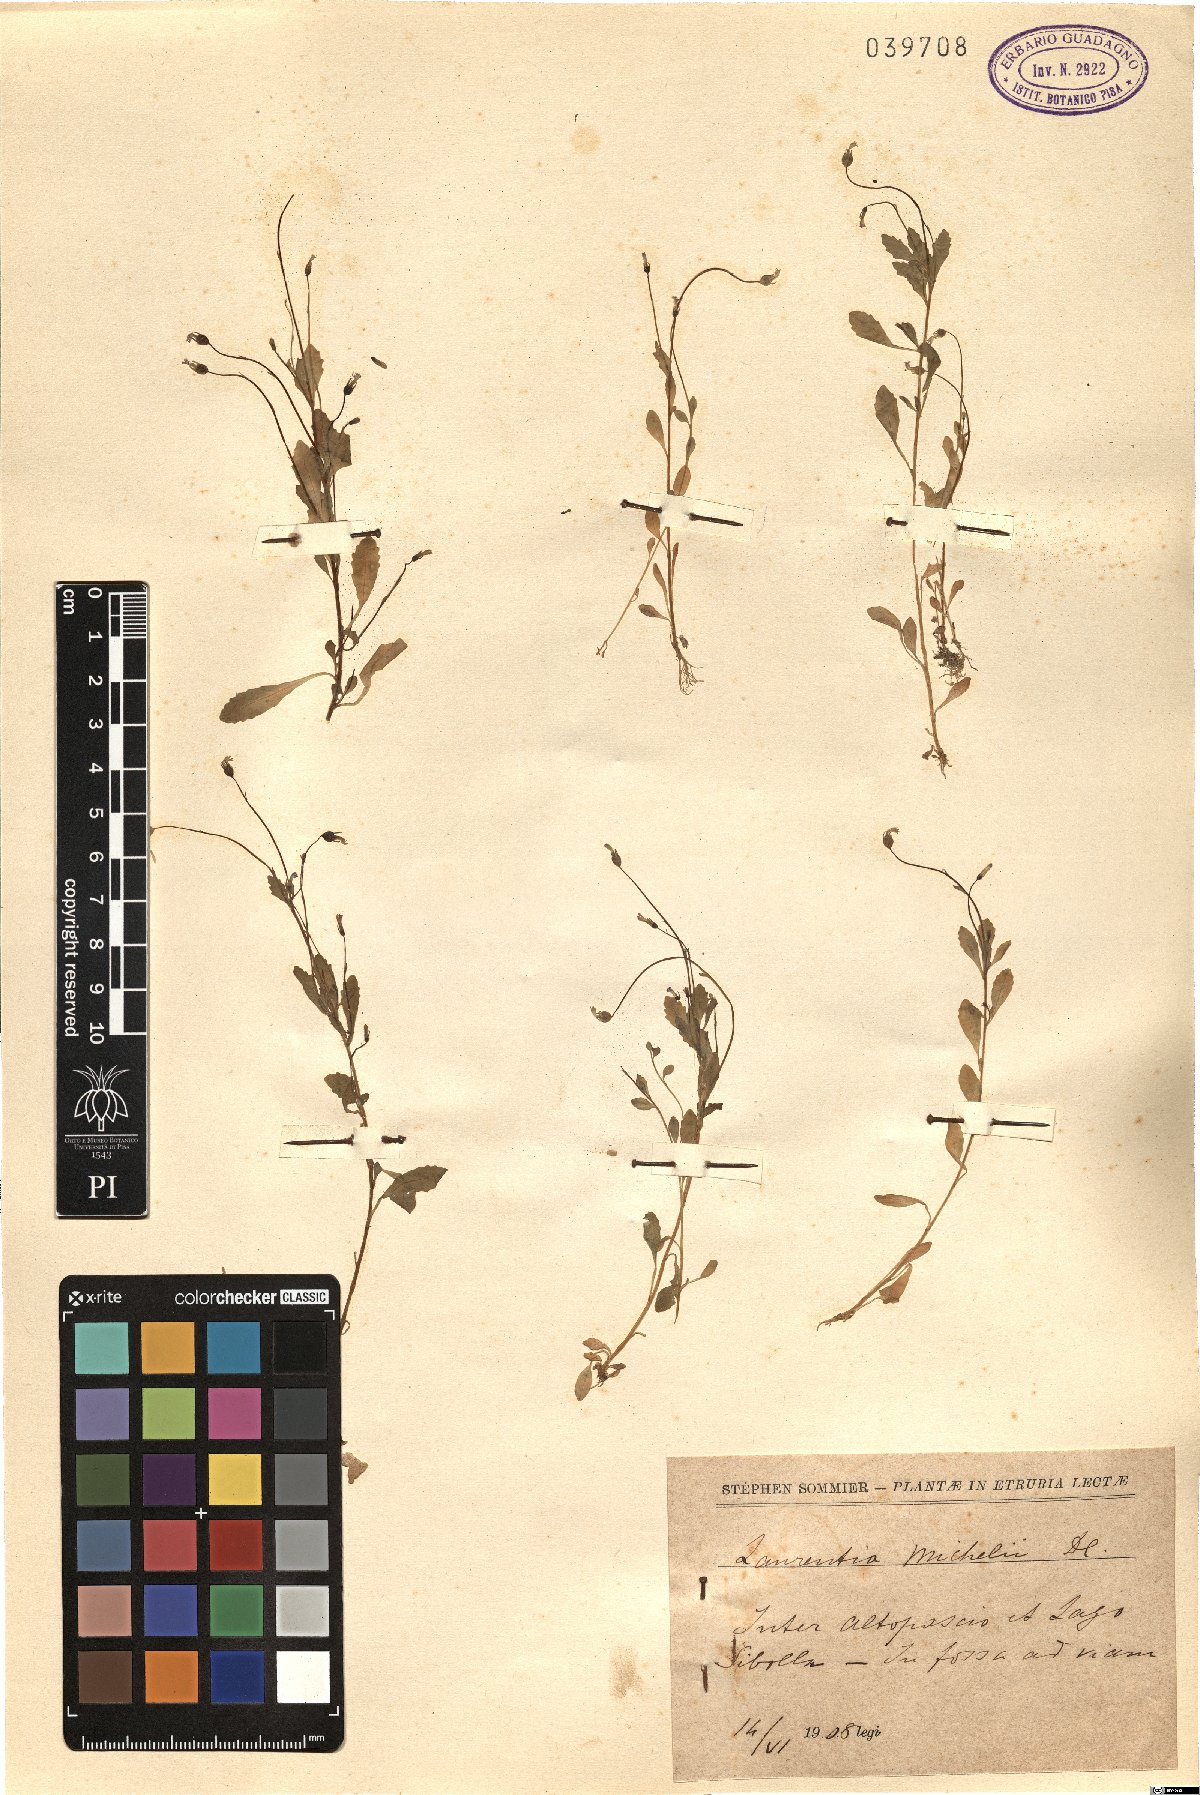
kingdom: Plantae
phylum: Tracheophyta
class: Magnoliopsida
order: Asterales
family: Campanulaceae
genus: Solenopsis
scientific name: Solenopsis laurentia
